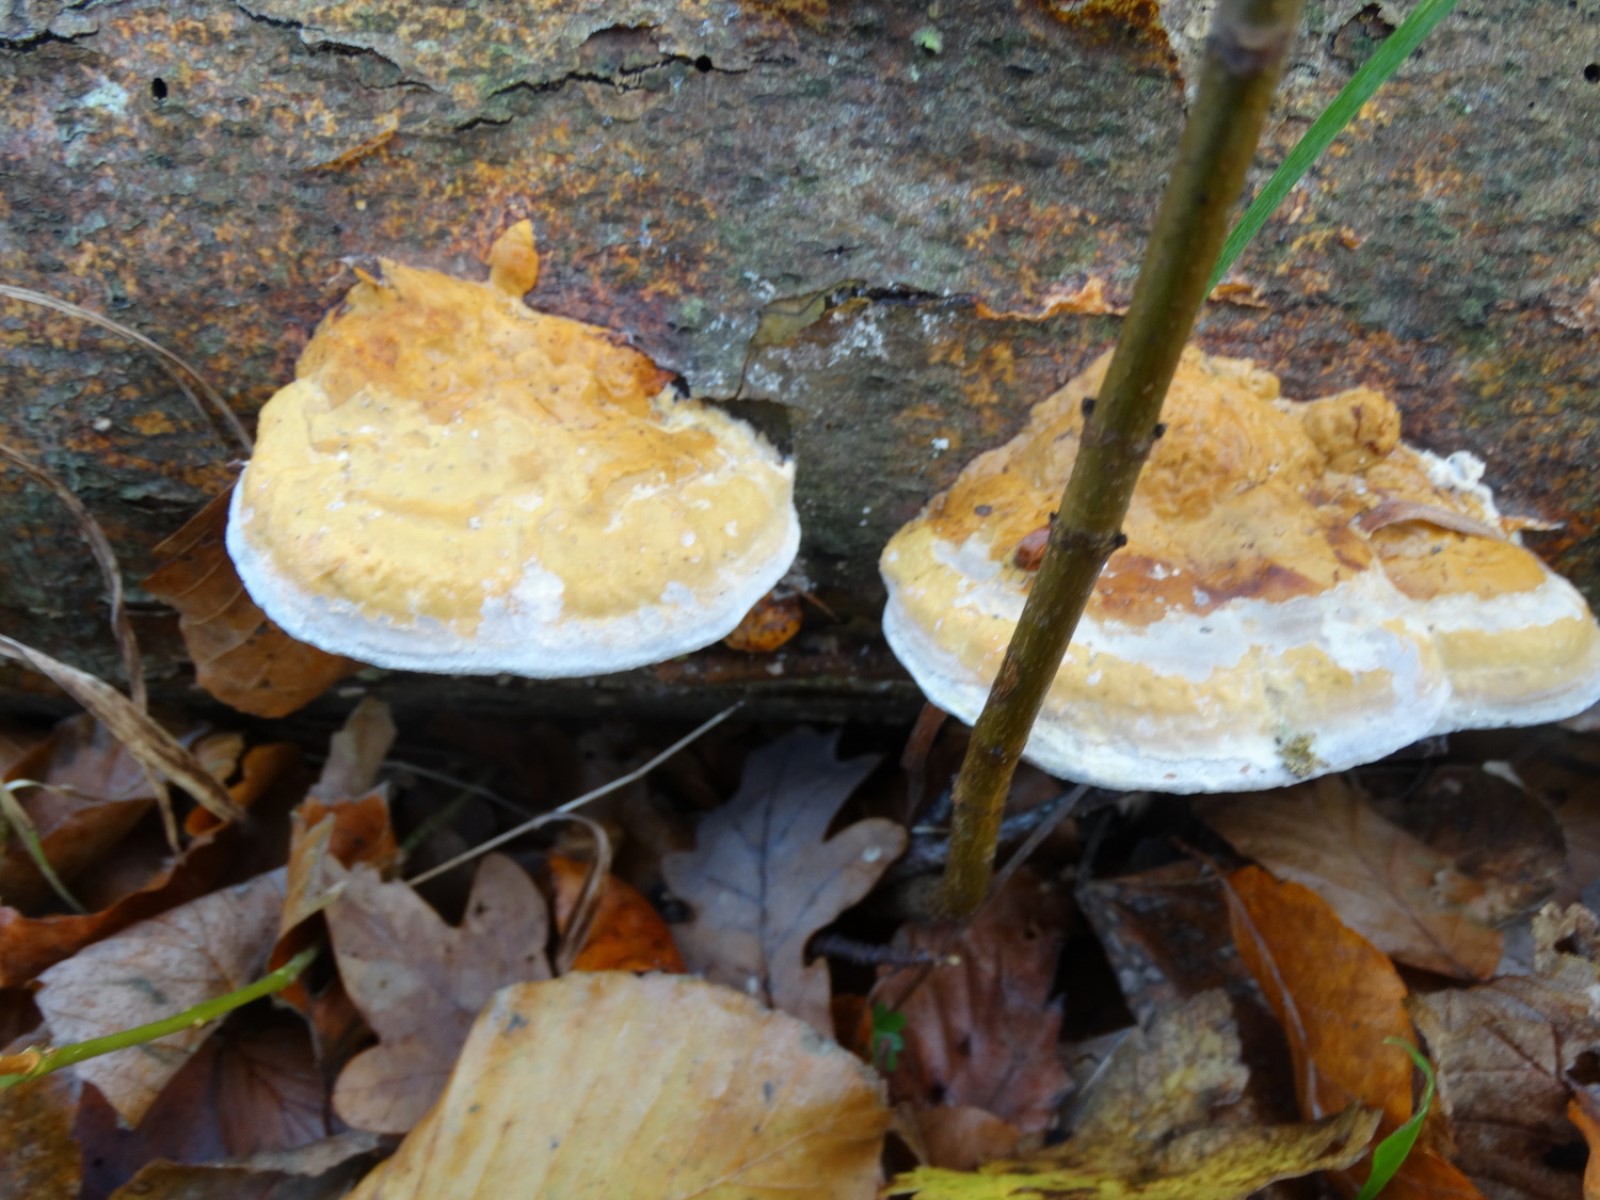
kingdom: Fungi
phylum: Basidiomycota
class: Agaricomycetes
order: Polyporales
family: Fomitopsidaceae
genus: Fomitopsis
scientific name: Fomitopsis pinicola
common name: randbæltet hovporesvamp
